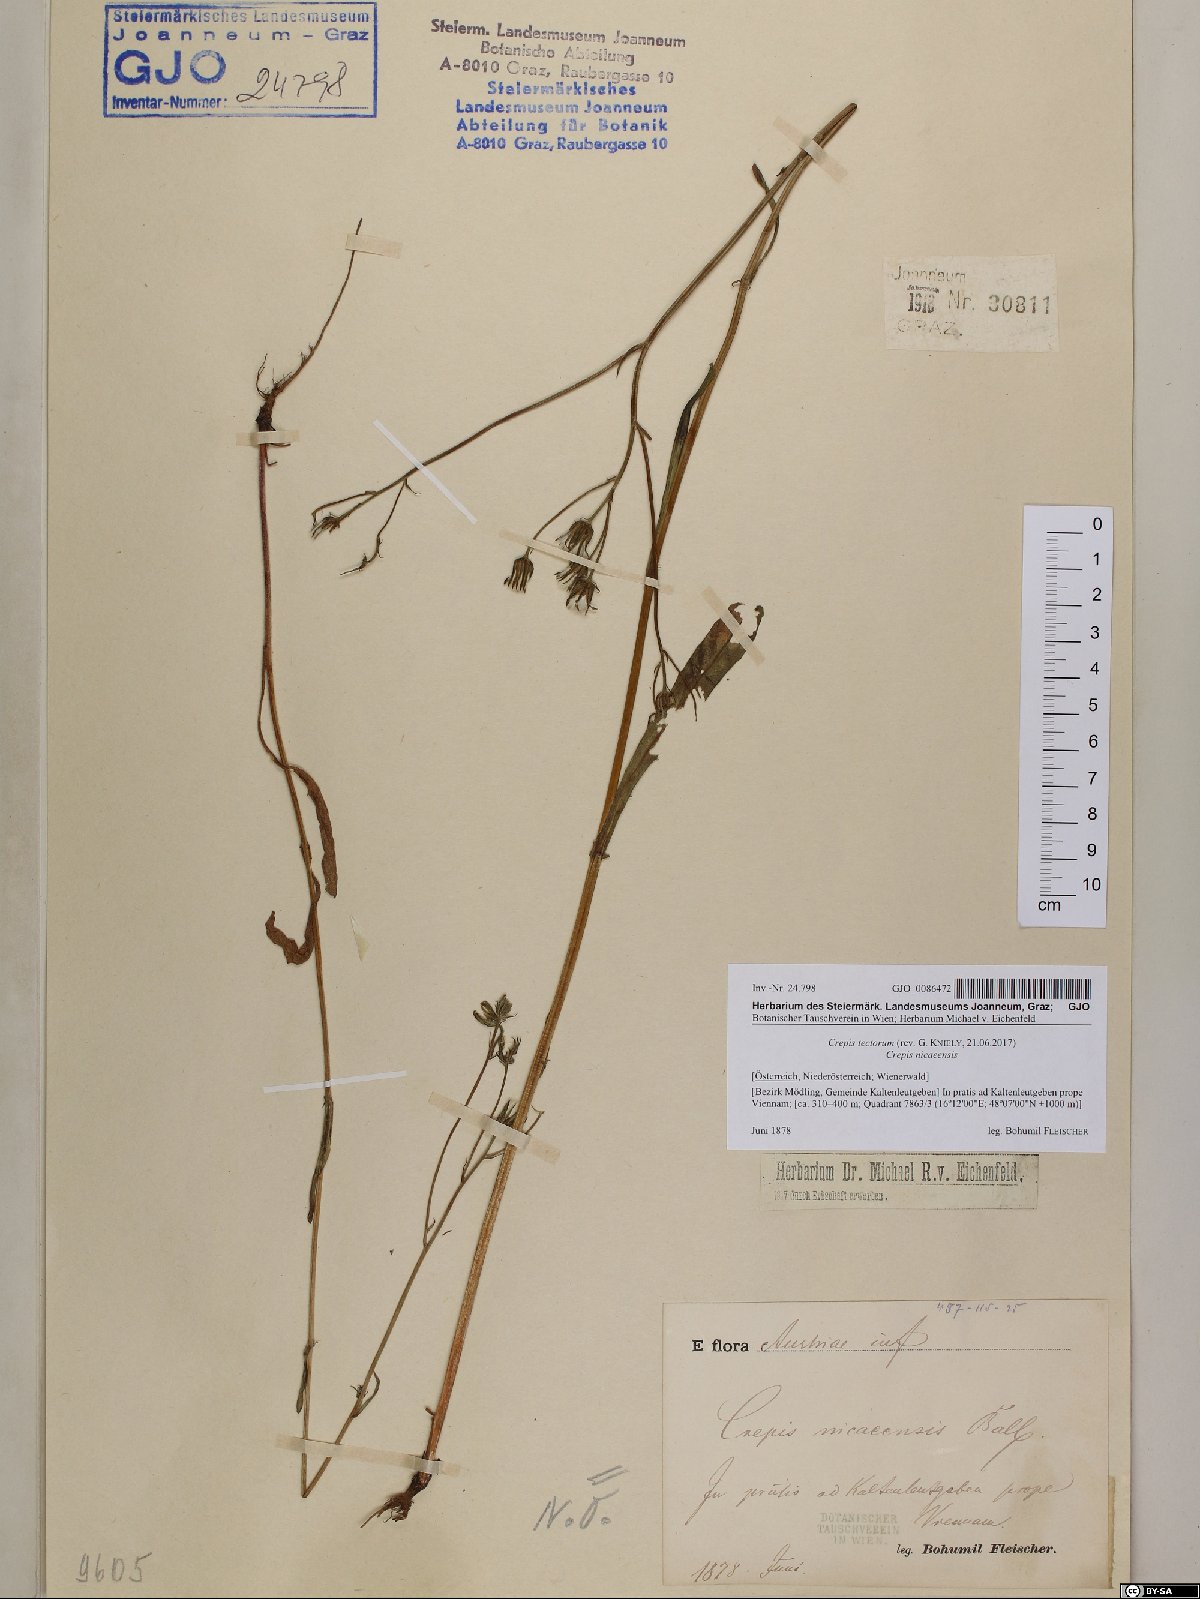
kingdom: Plantae
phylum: Tracheophyta
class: Magnoliopsida
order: Asterales
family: Asteraceae
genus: Crepis
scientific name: Crepis tectorum
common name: Narrow-leaved hawk's-beard
